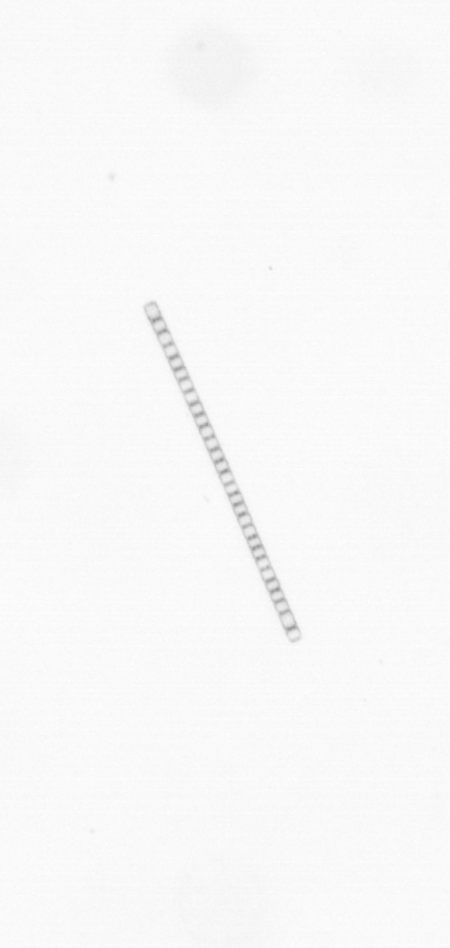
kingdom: Chromista
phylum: Ochrophyta
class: Bacillariophyceae
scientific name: Bacillariophyceae
